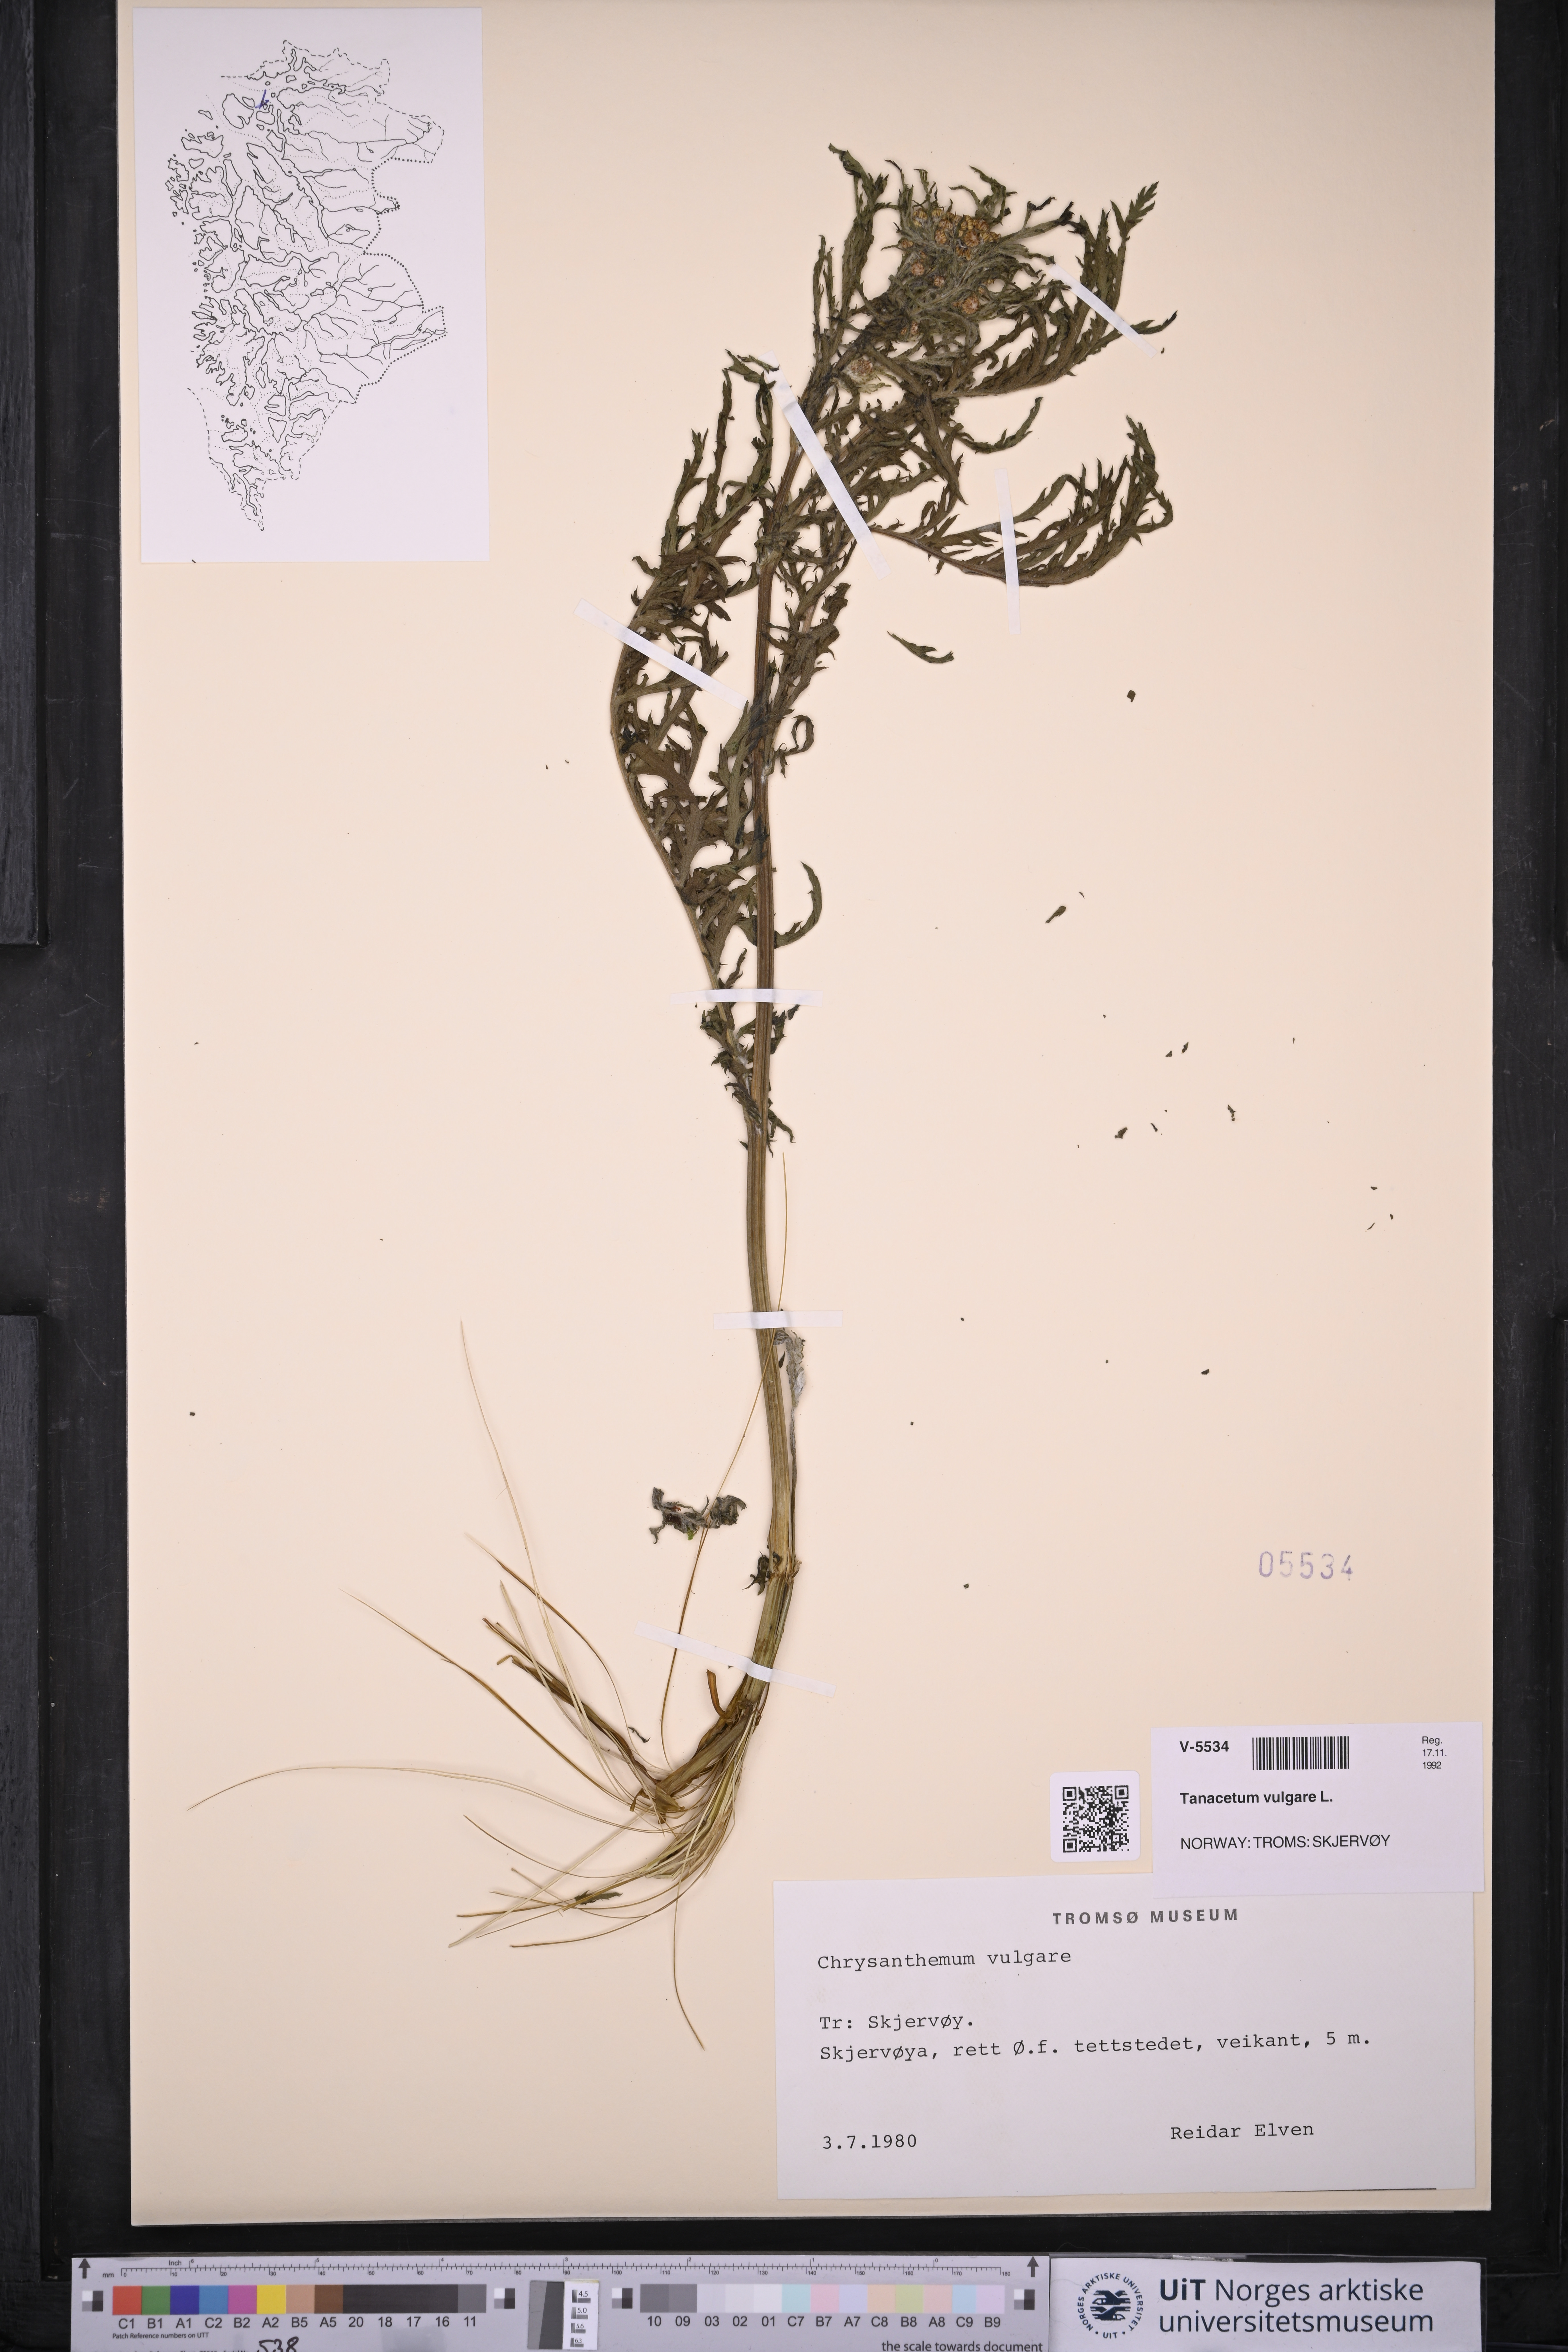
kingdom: Plantae
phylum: Tracheophyta
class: Magnoliopsida
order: Asterales
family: Asteraceae
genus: Tanacetum
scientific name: Tanacetum vulgare
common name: Common tansy
